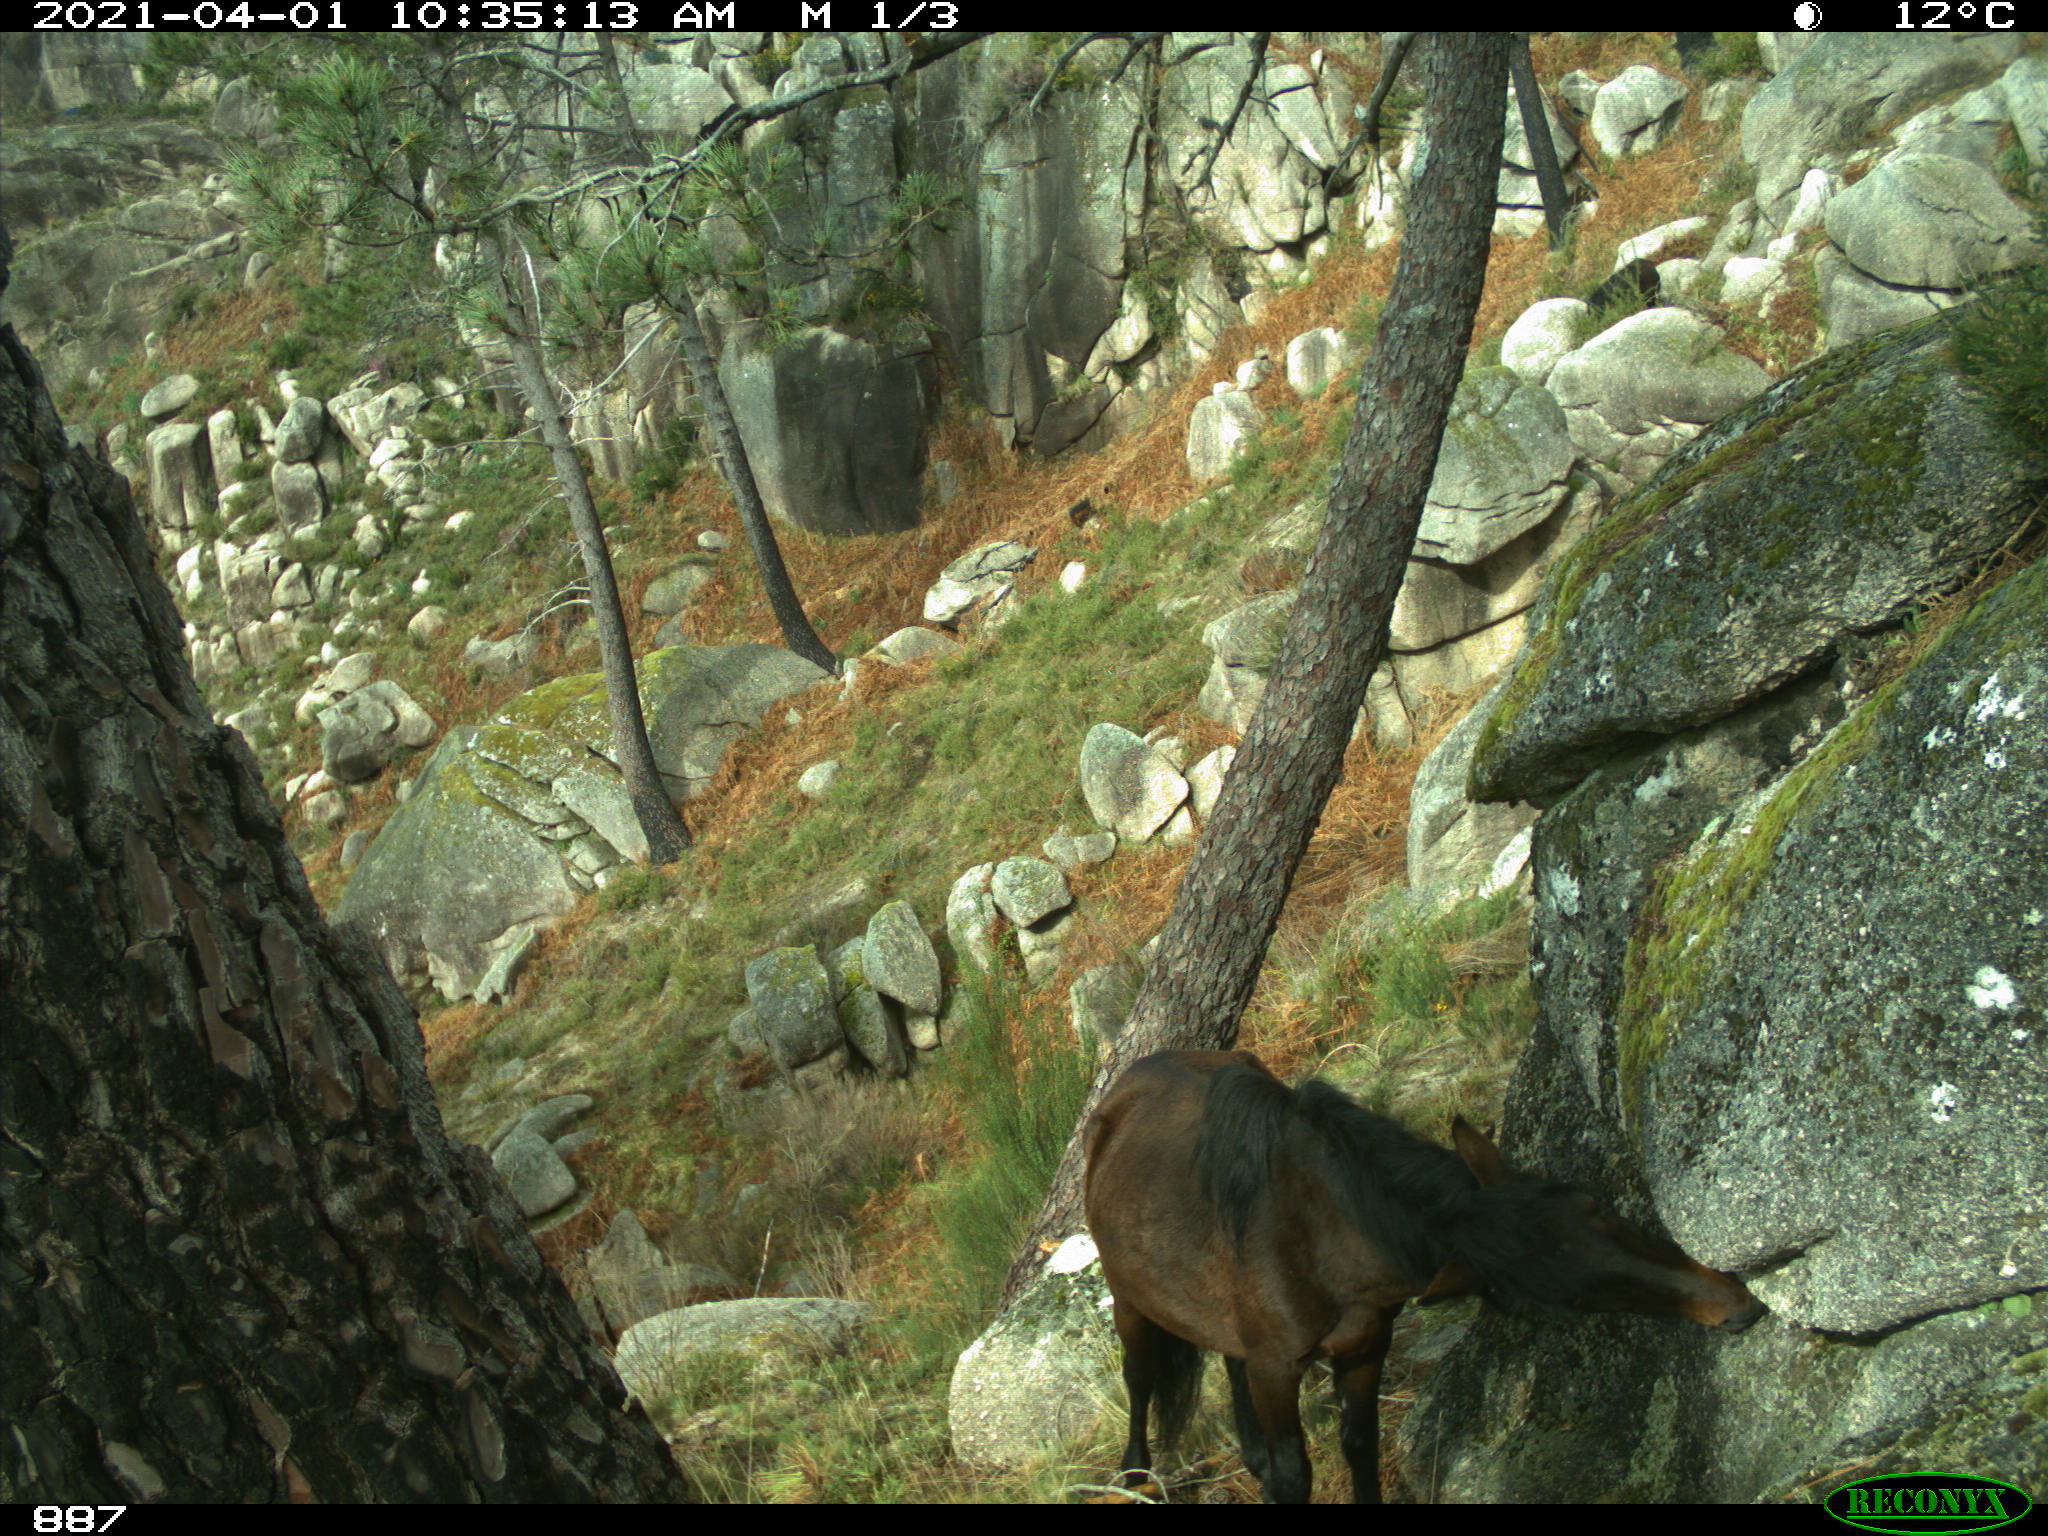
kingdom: Animalia
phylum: Chordata
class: Mammalia
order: Perissodactyla
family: Equidae
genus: Equus
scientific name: Equus caballus
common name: Horse
